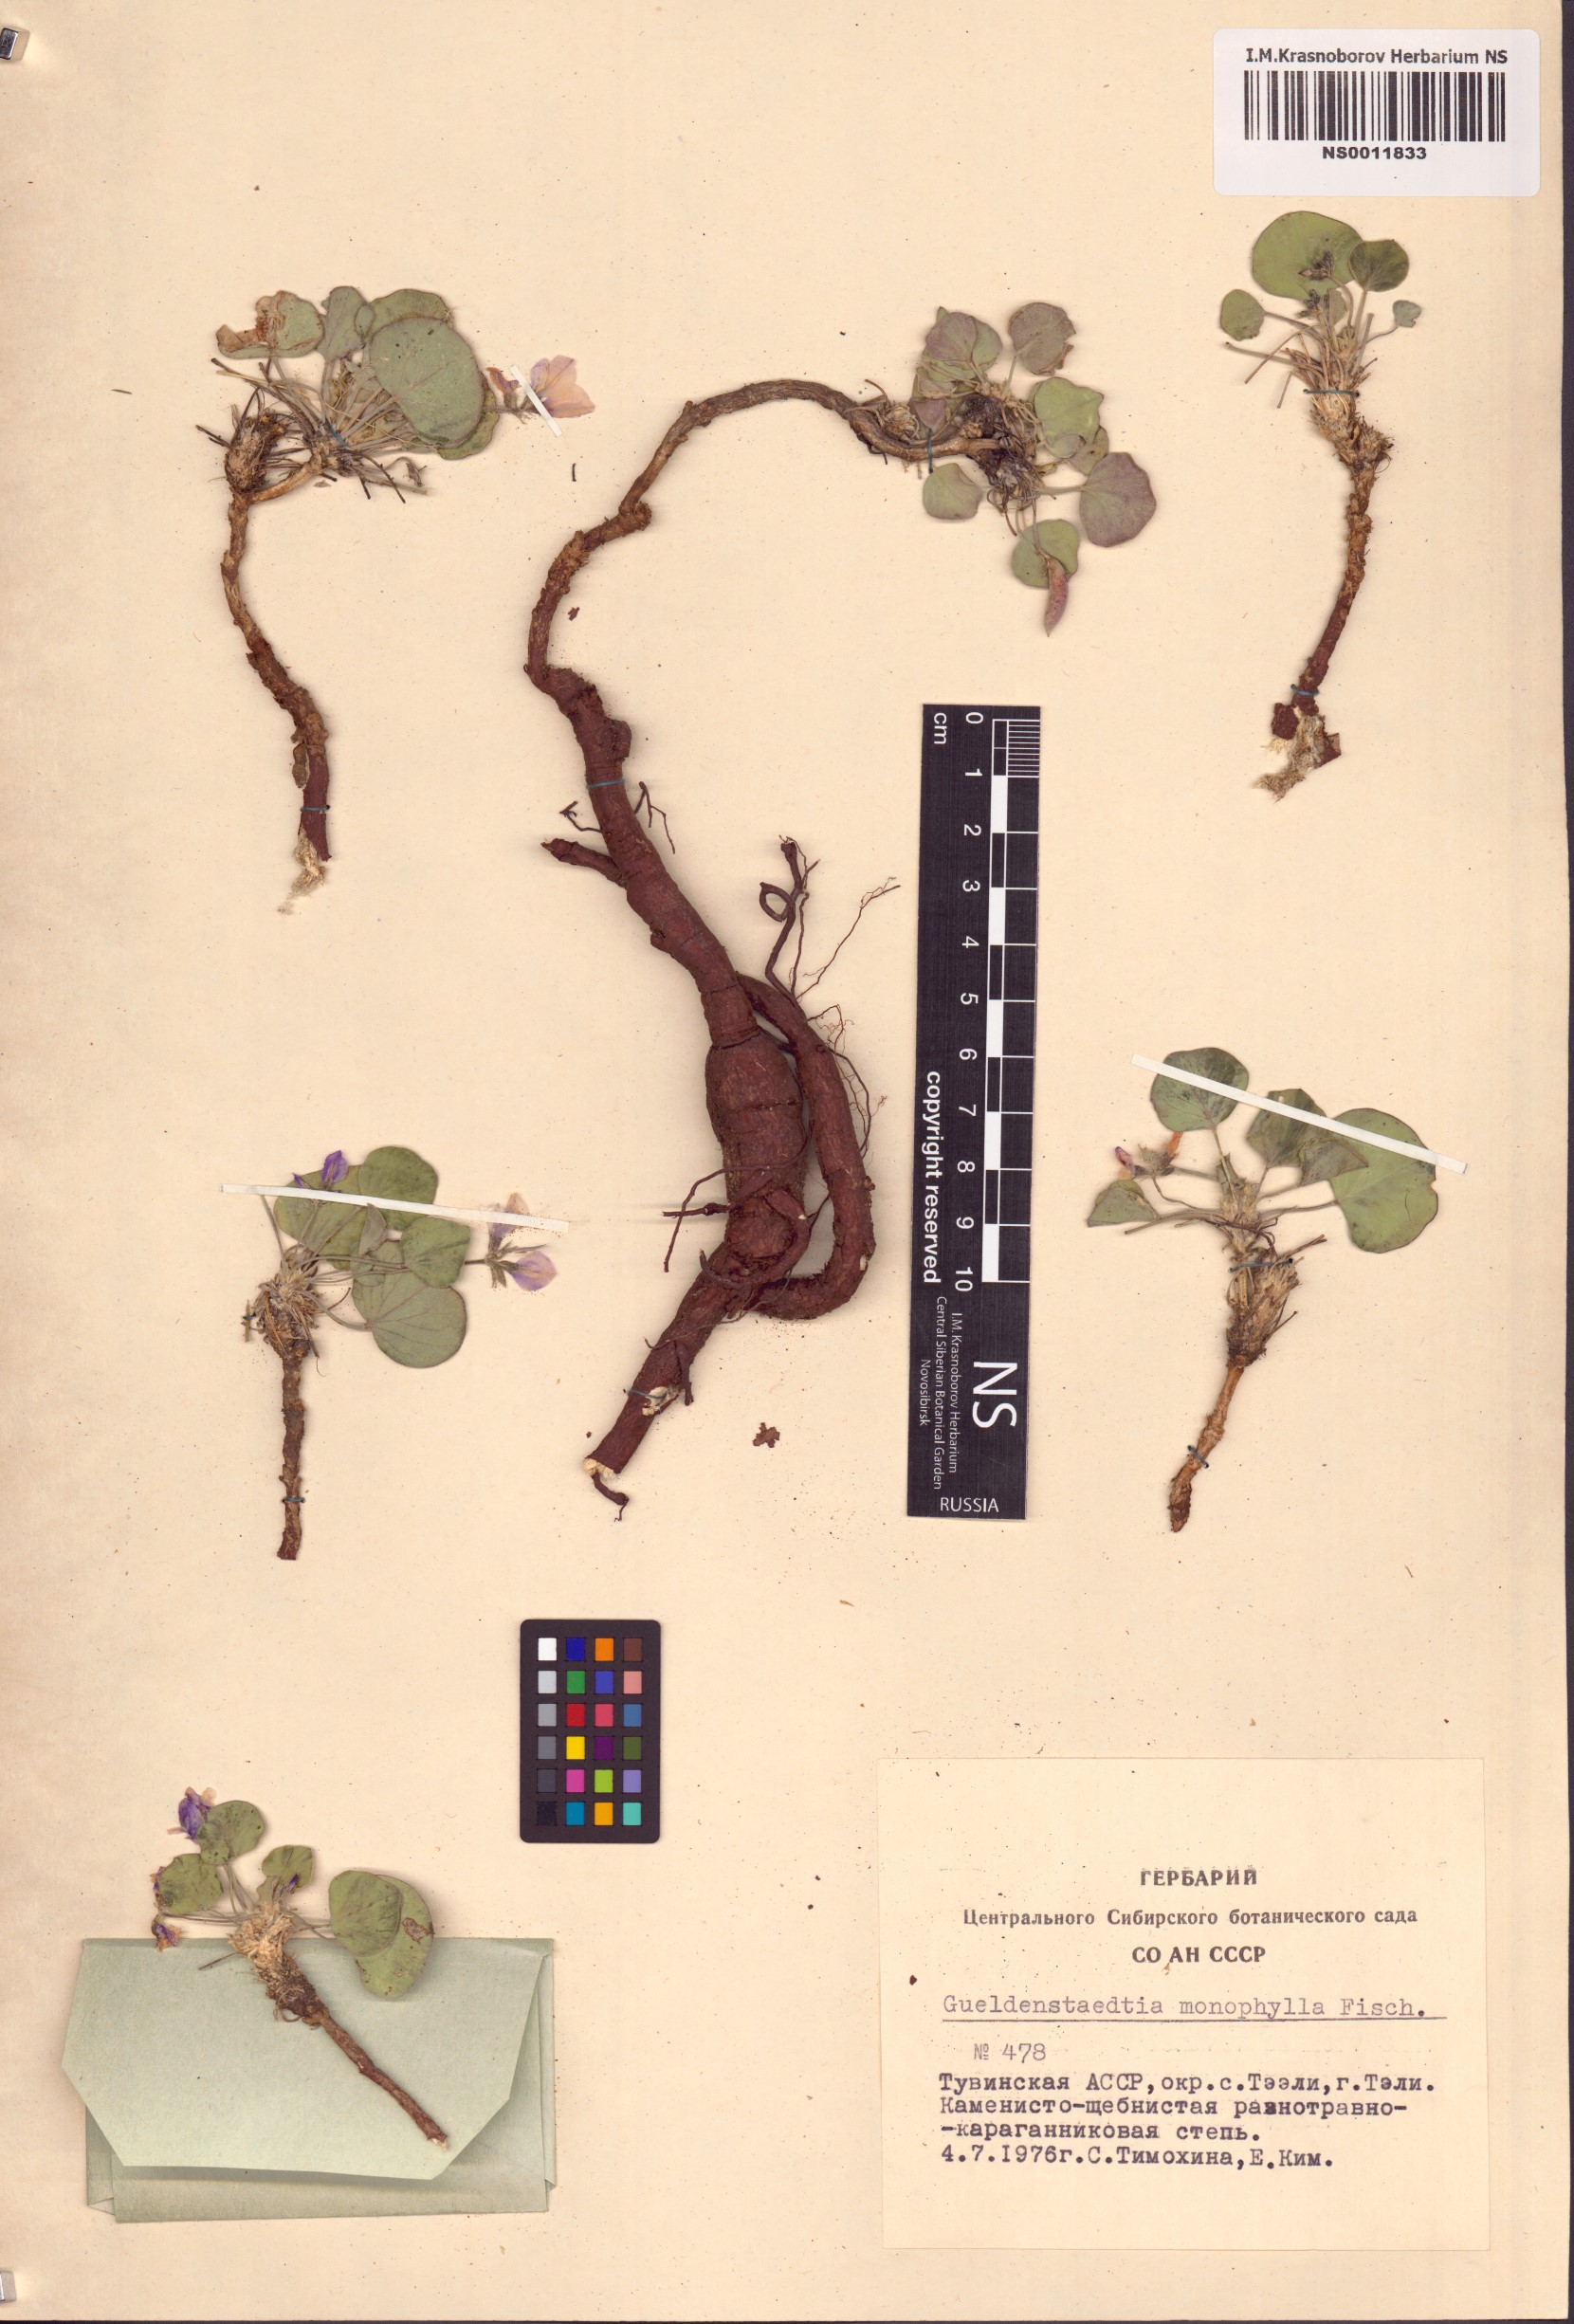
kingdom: Plantae
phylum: Tracheophyta
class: Magnoliopsida
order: Fabales
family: Fabaceae
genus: Gueldenstaedtia
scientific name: Gueldenstaedtia monophylla
